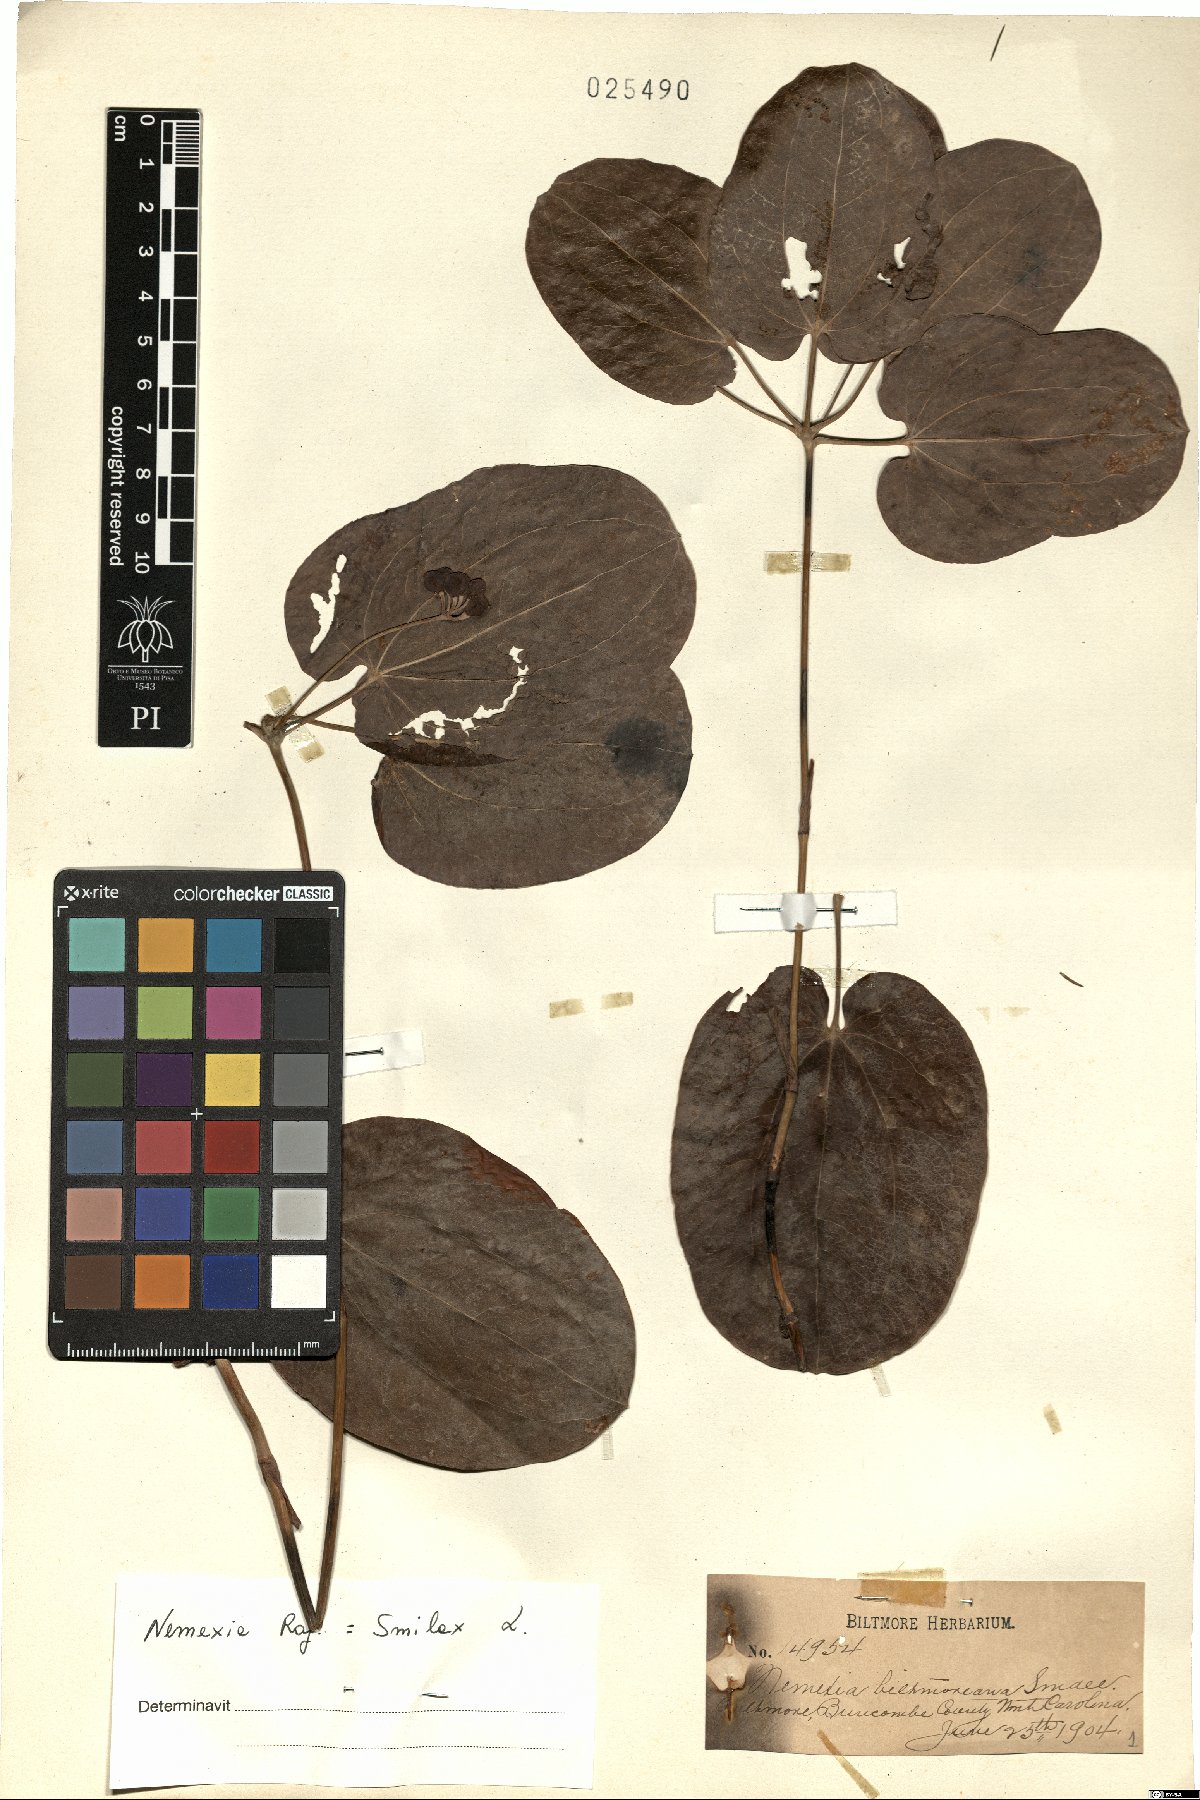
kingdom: Plantae
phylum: Tracheophyta
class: Liliopsida
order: Liliales
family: Smilacaceae
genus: Smilax
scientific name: Smilax biltmoreana
